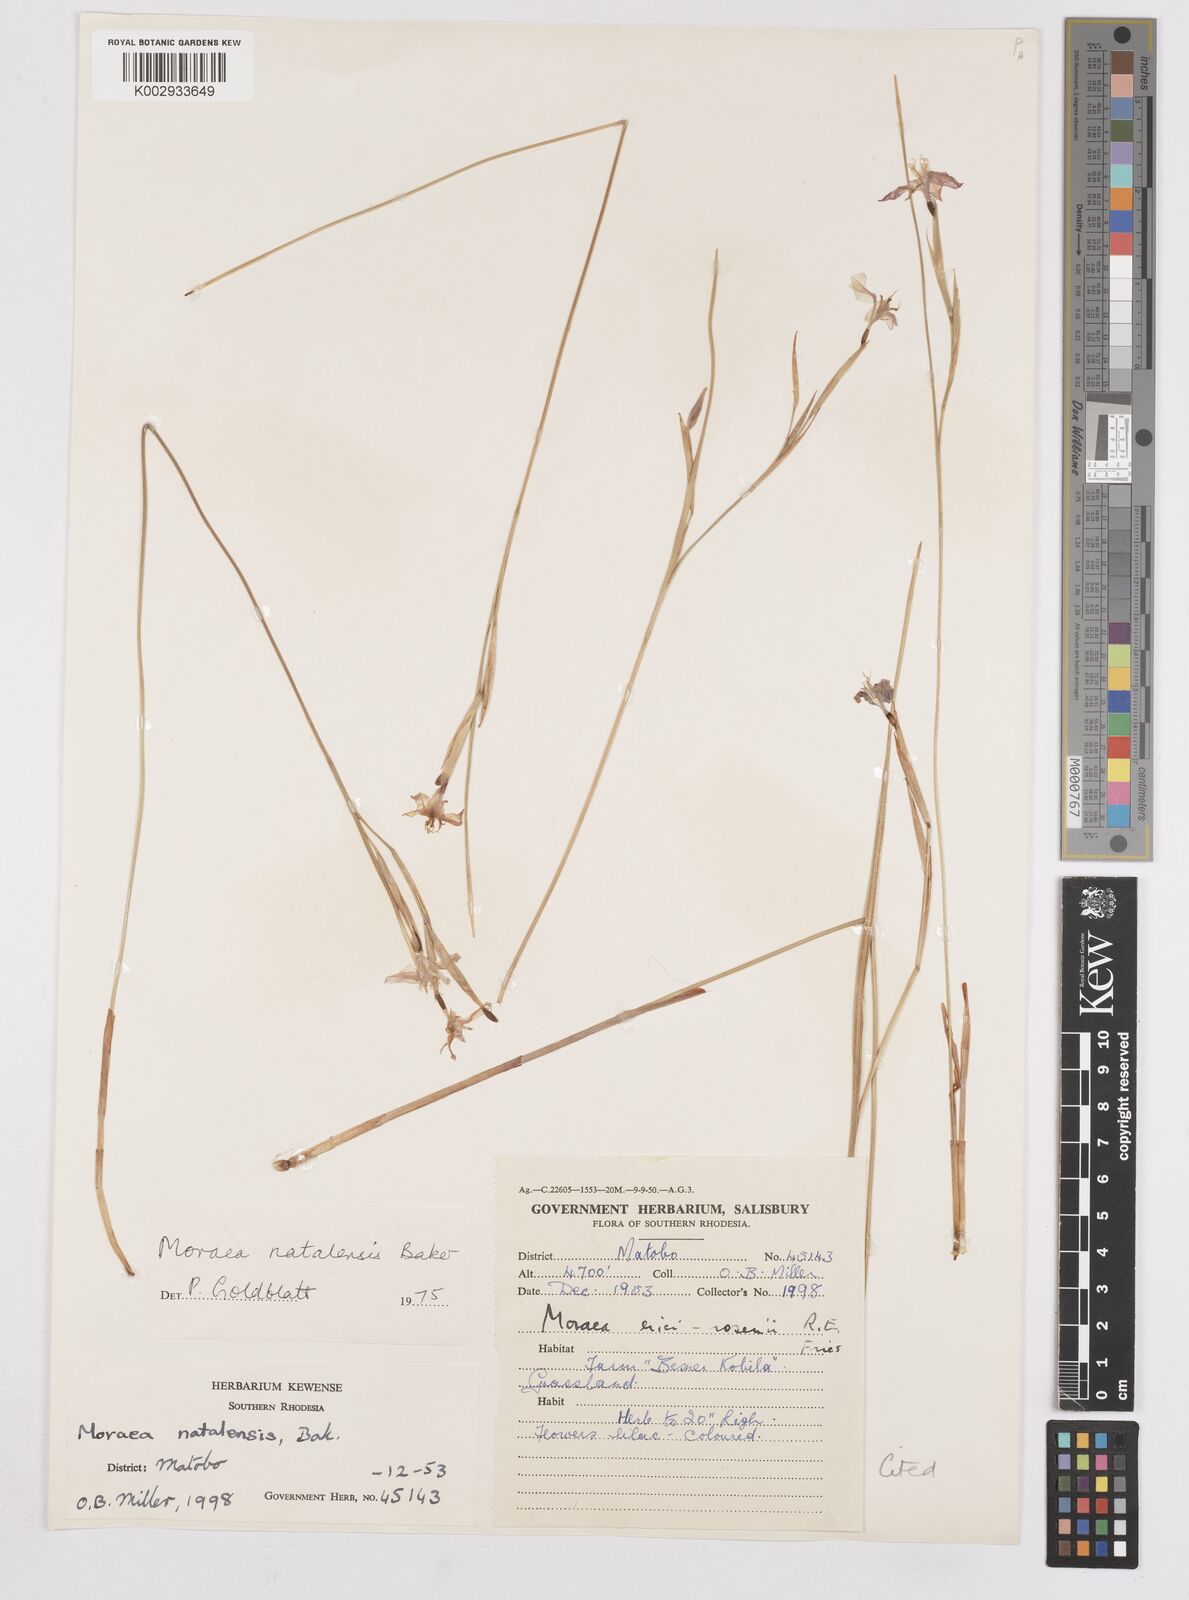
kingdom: Plantae
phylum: Tracheophyta
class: Liliopsida
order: Asparagales
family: Iridaceae
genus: Moraea
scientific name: Moraea natalensis
